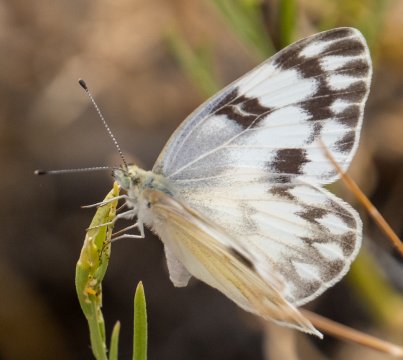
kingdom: Animalia
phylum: Arthropoda
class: Insecta
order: Lepidoptera
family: Pieridae
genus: Pontia
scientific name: Pontia protodice
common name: Checkered White
